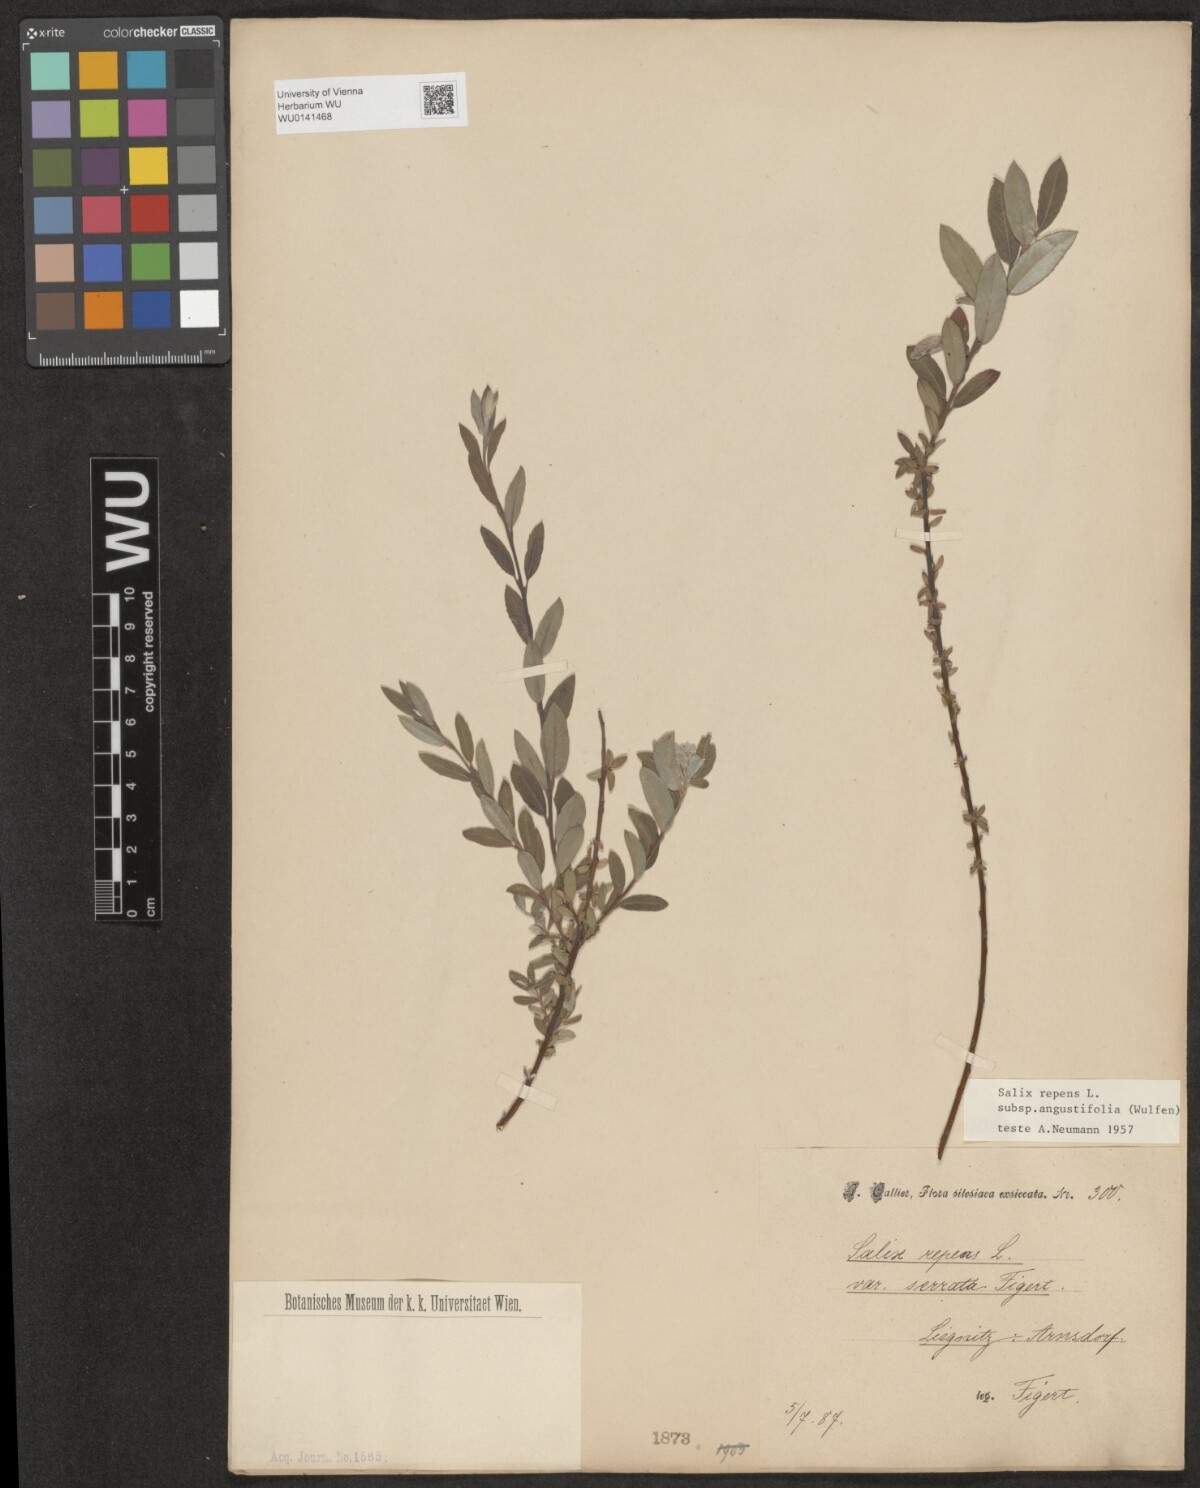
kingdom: Plantae
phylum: Tracheophyta
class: Magnoliopsida
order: Malpighiales
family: Salicaceae
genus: Salix
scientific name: Salix rosmarinifolia
